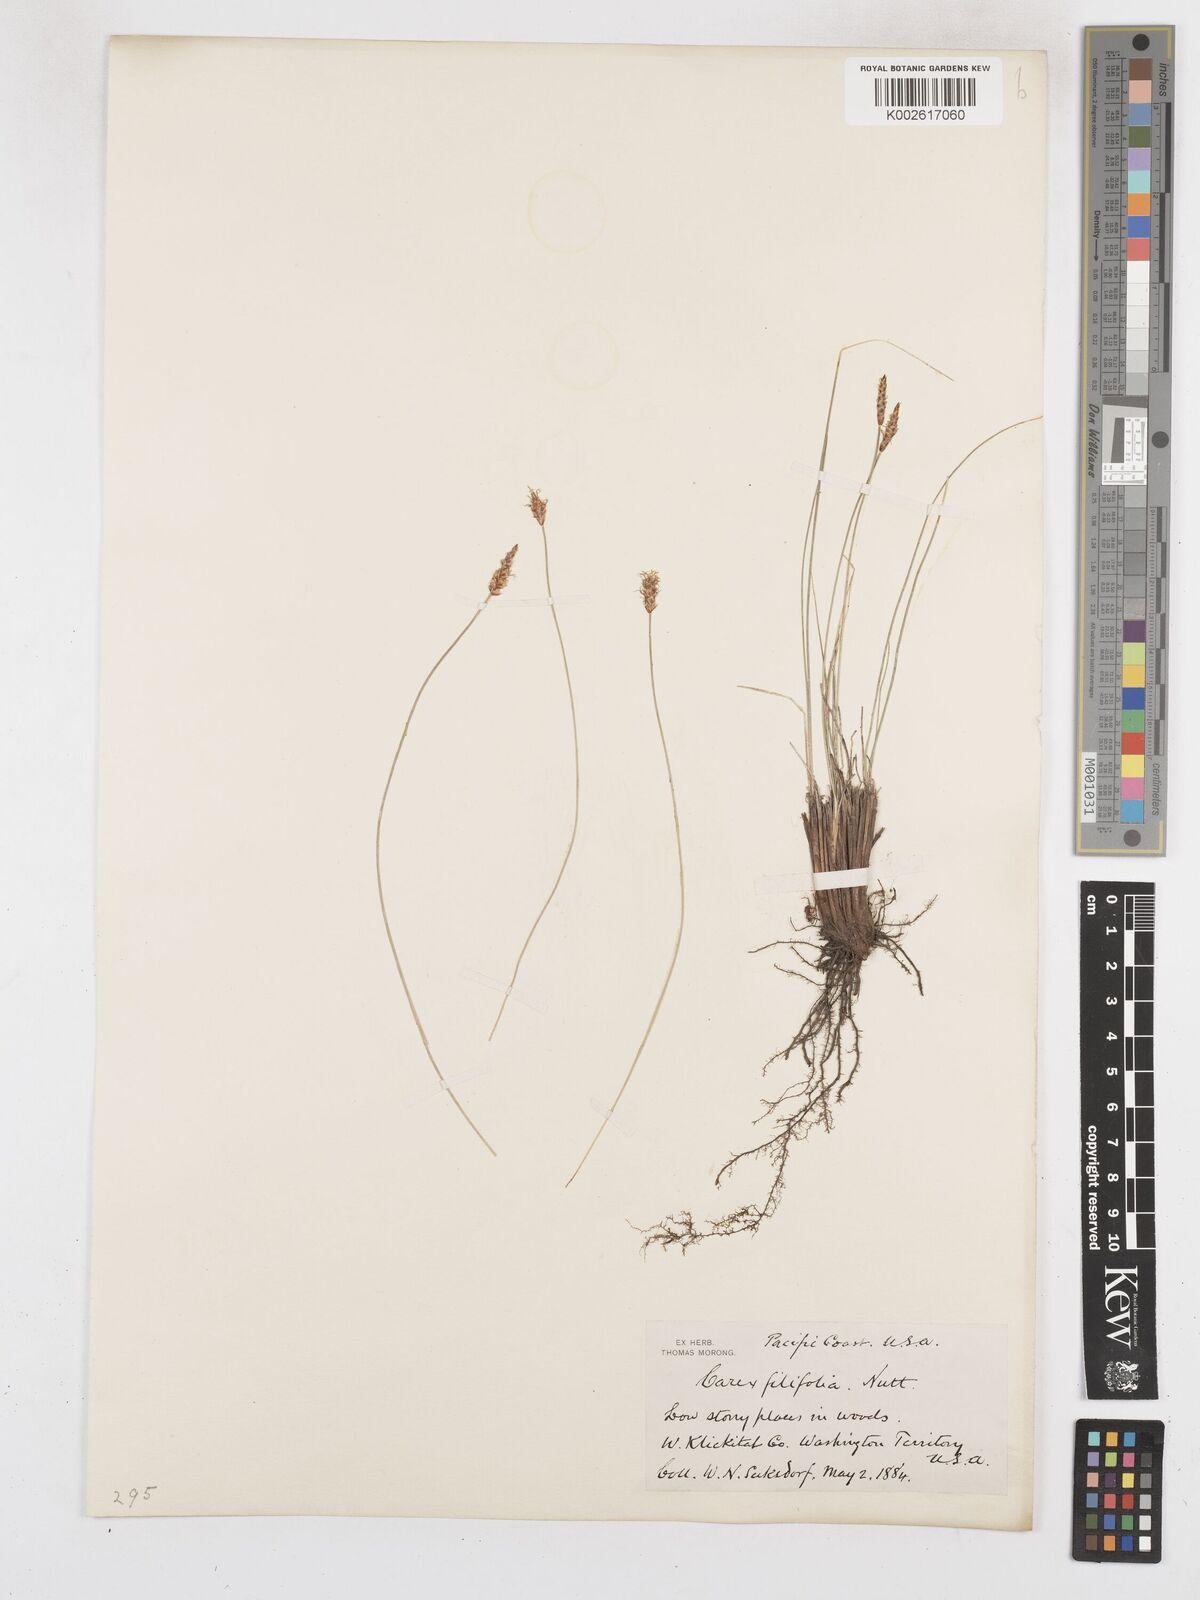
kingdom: Plantae
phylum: Tracheophyta
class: Liliopsida
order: Poales
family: Cyperaceae
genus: Carex
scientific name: Carex filifolia
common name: Threadleaf sedge
